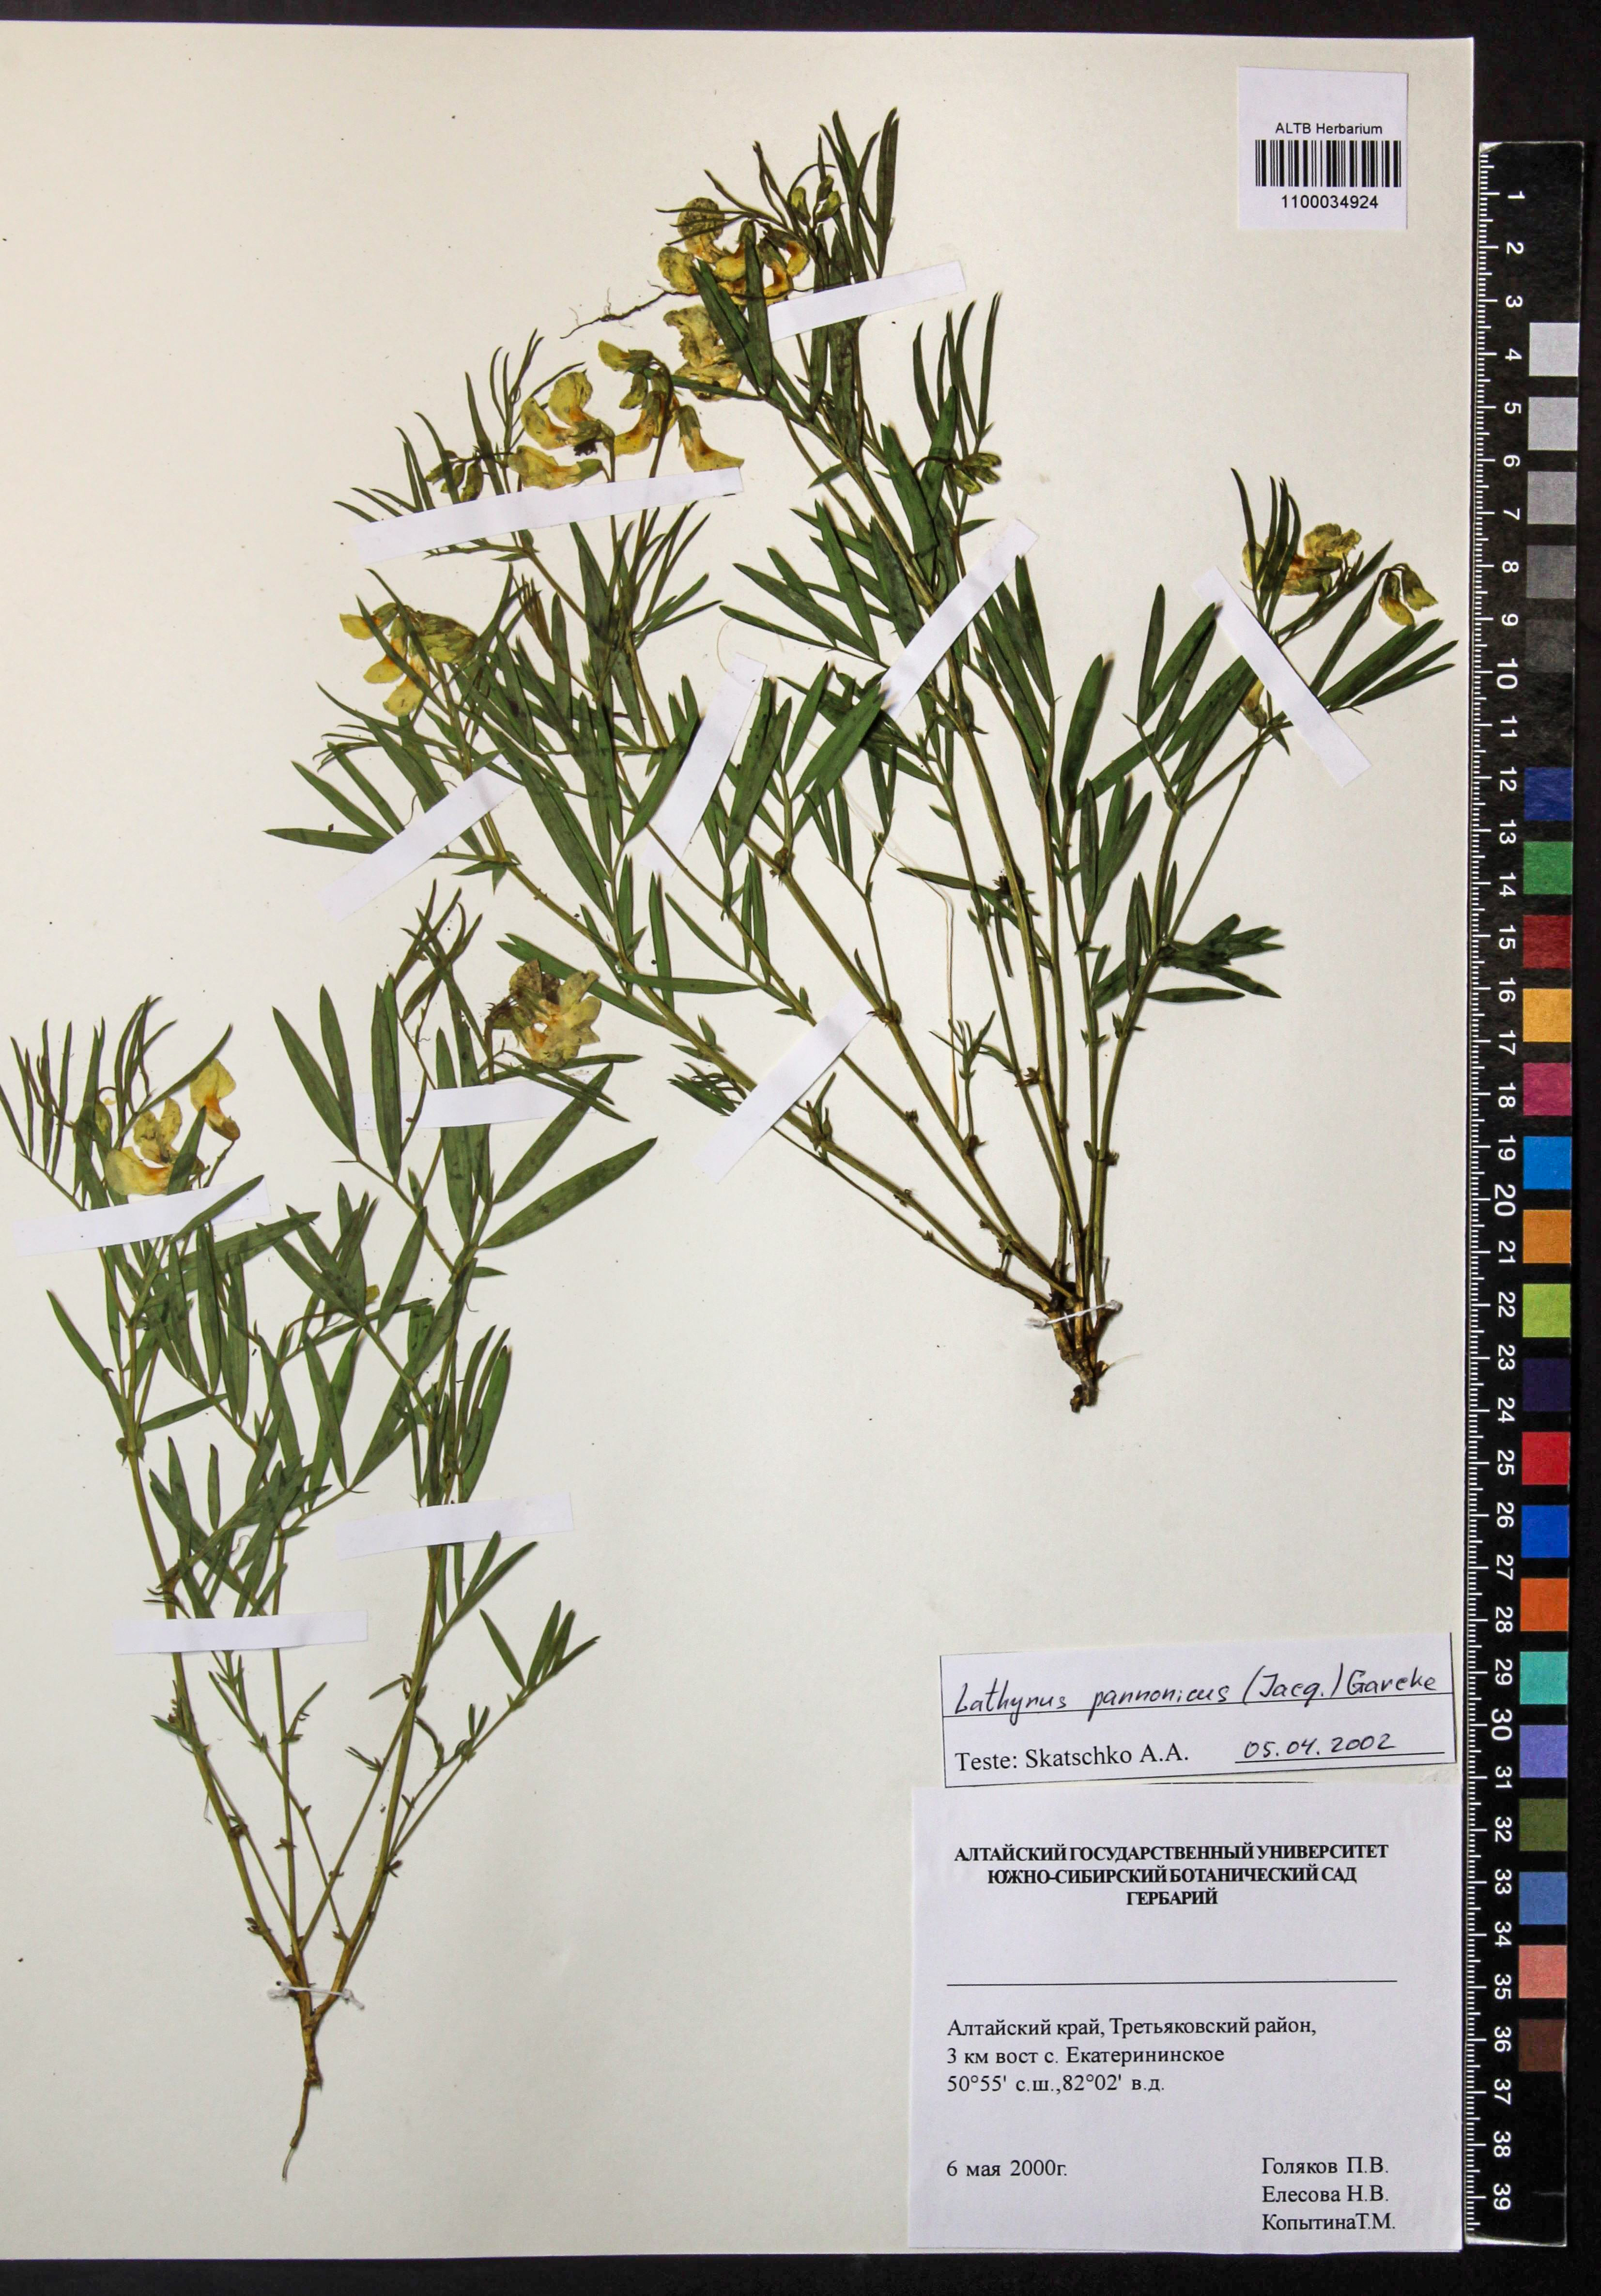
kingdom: Plantae
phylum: Tracheophyta
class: Magnoliopsida
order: Fabales
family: Fabaceae
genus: Lathyrus
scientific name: Lathyrus pannonicus
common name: Pea
